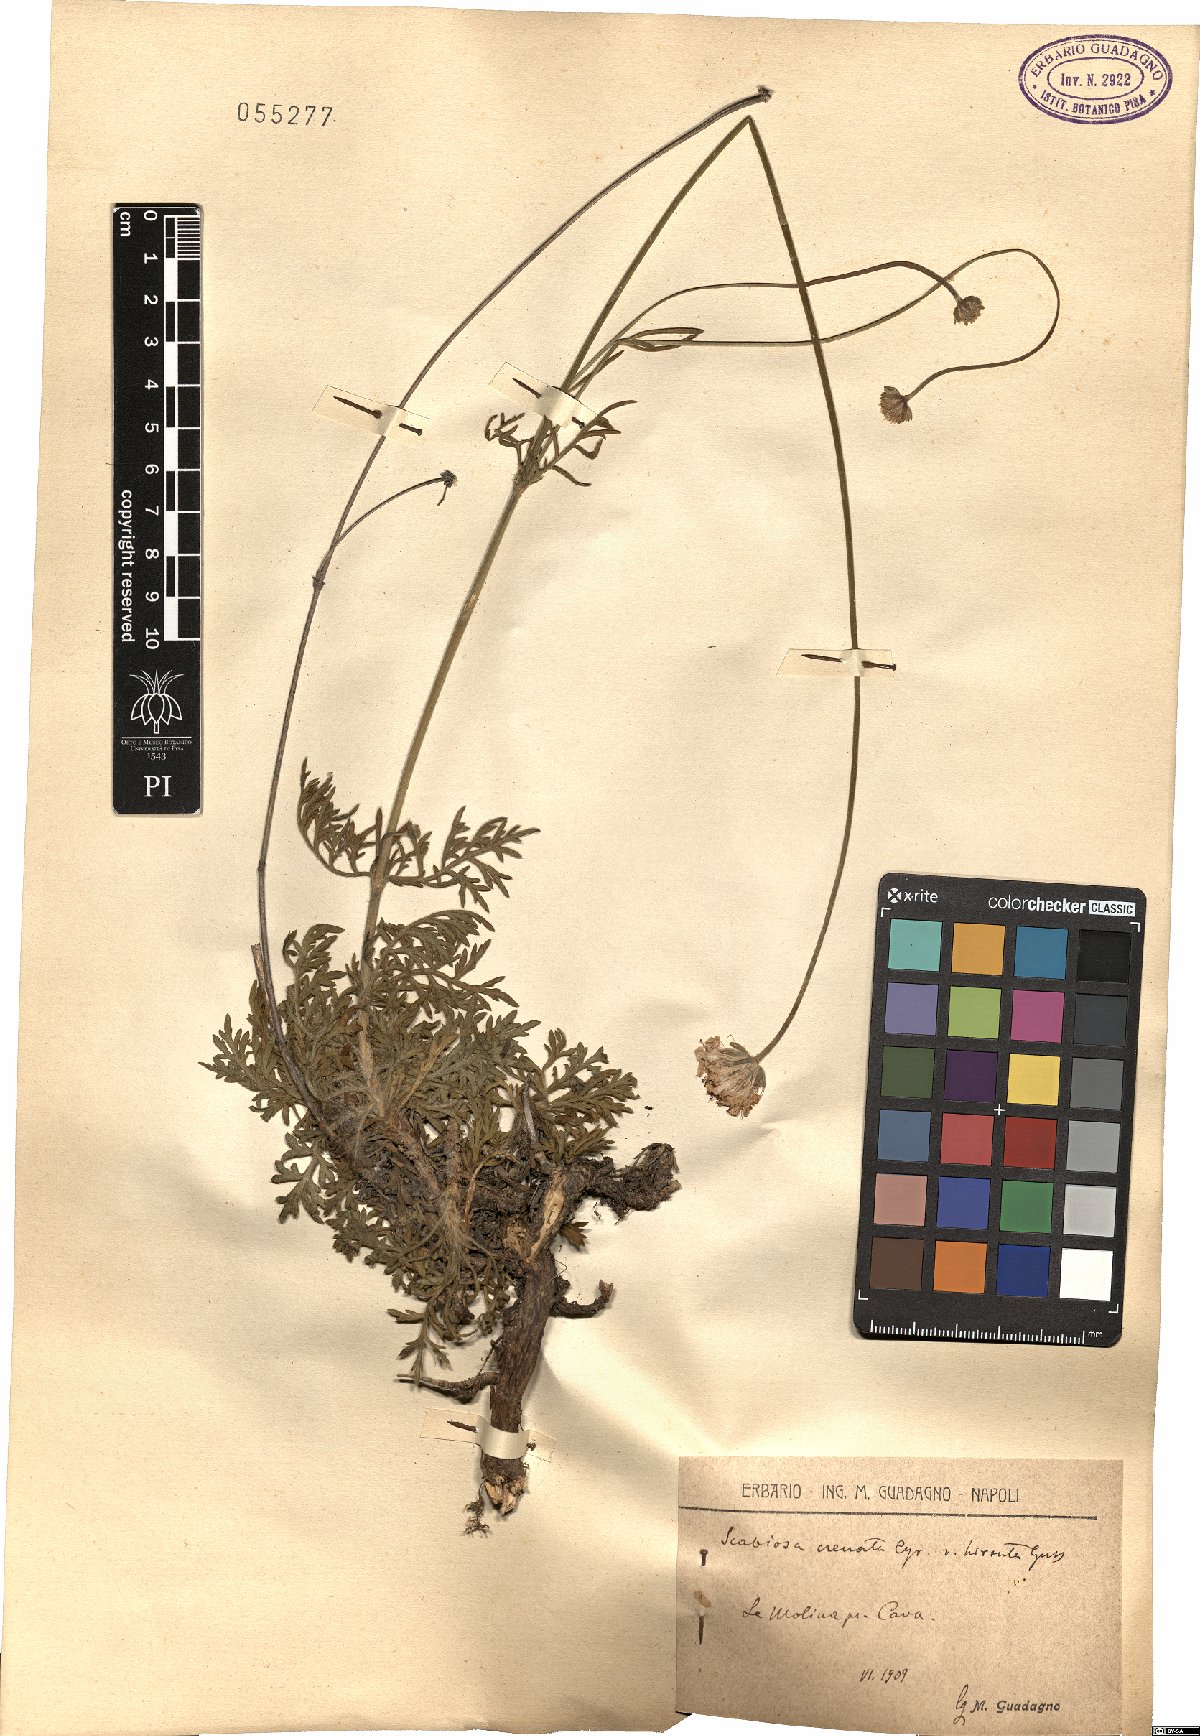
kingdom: Plantae
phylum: Tracheophyta
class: Magnoliopsida
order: Dipsacales
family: Caprifoliaceae
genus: Lomelosia
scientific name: Lomelosia crenata
